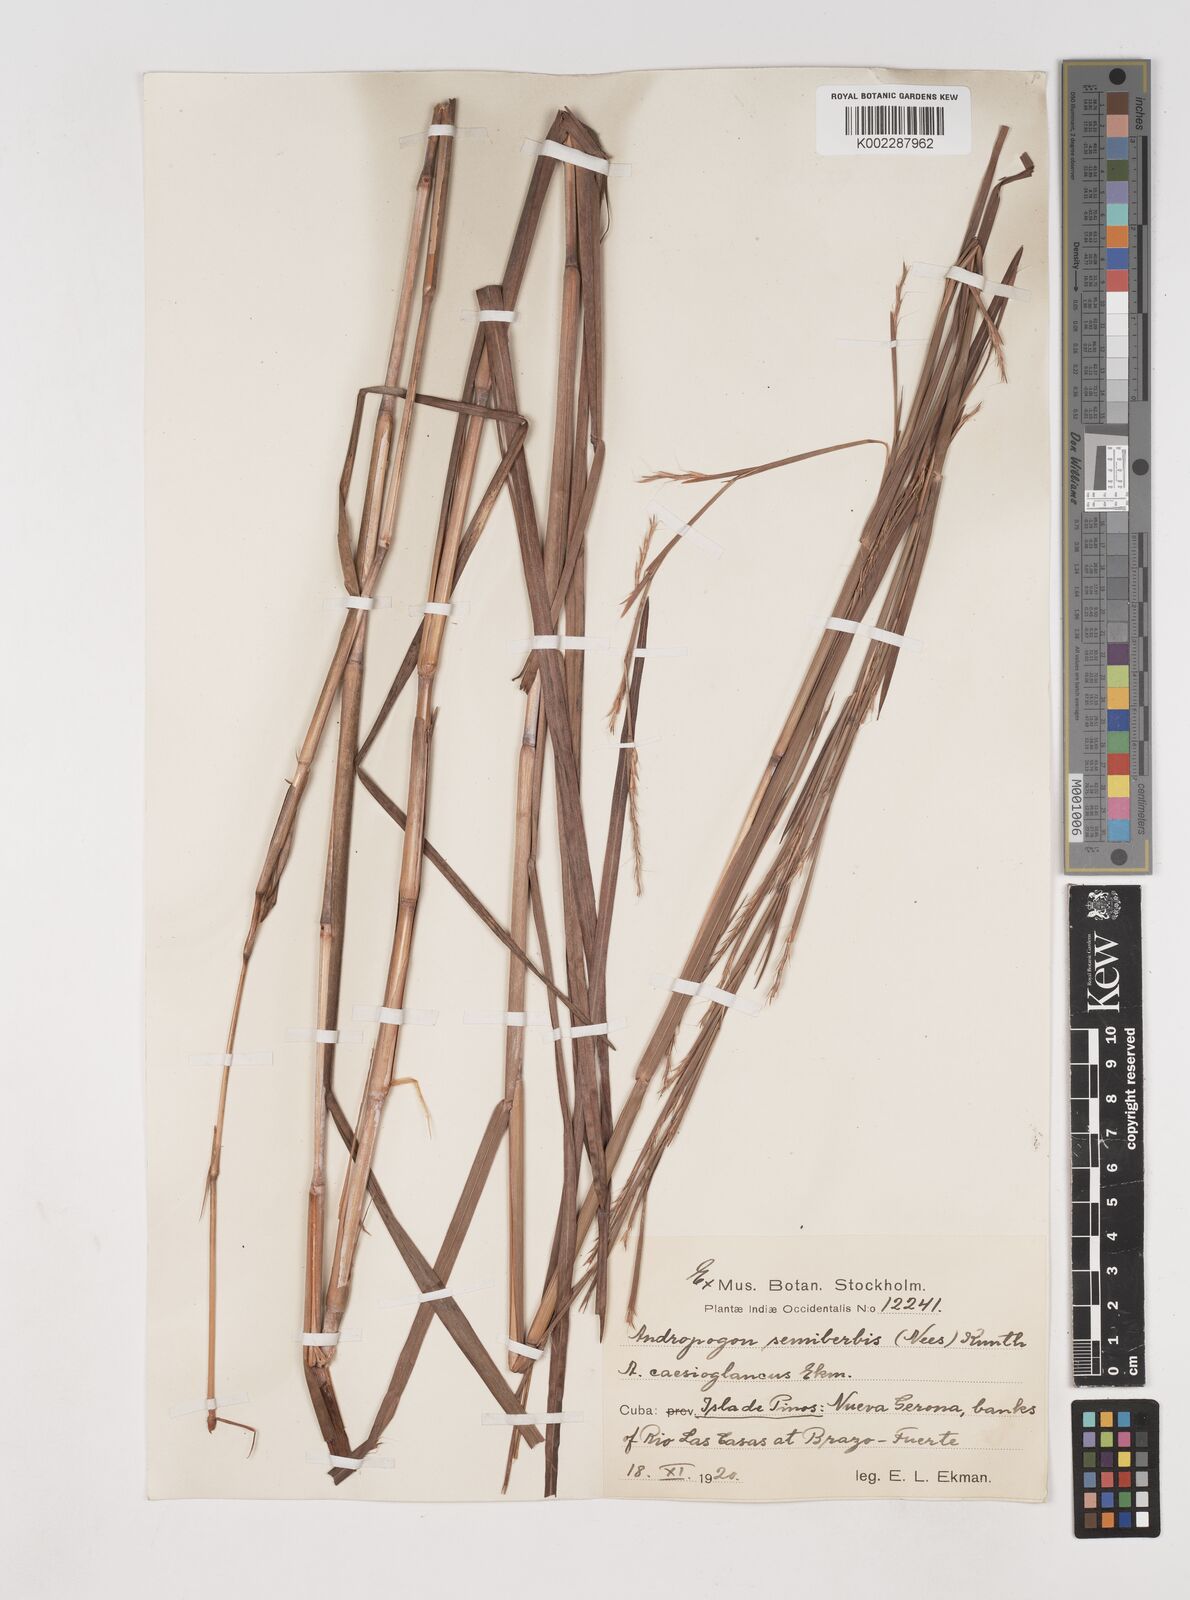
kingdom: Plantae
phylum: Tracheophyta
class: Liliopsida
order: Poales
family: Poaceae
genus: Schizachyrium
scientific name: Schizachyrium sanguineum
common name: Crimson bluestem
